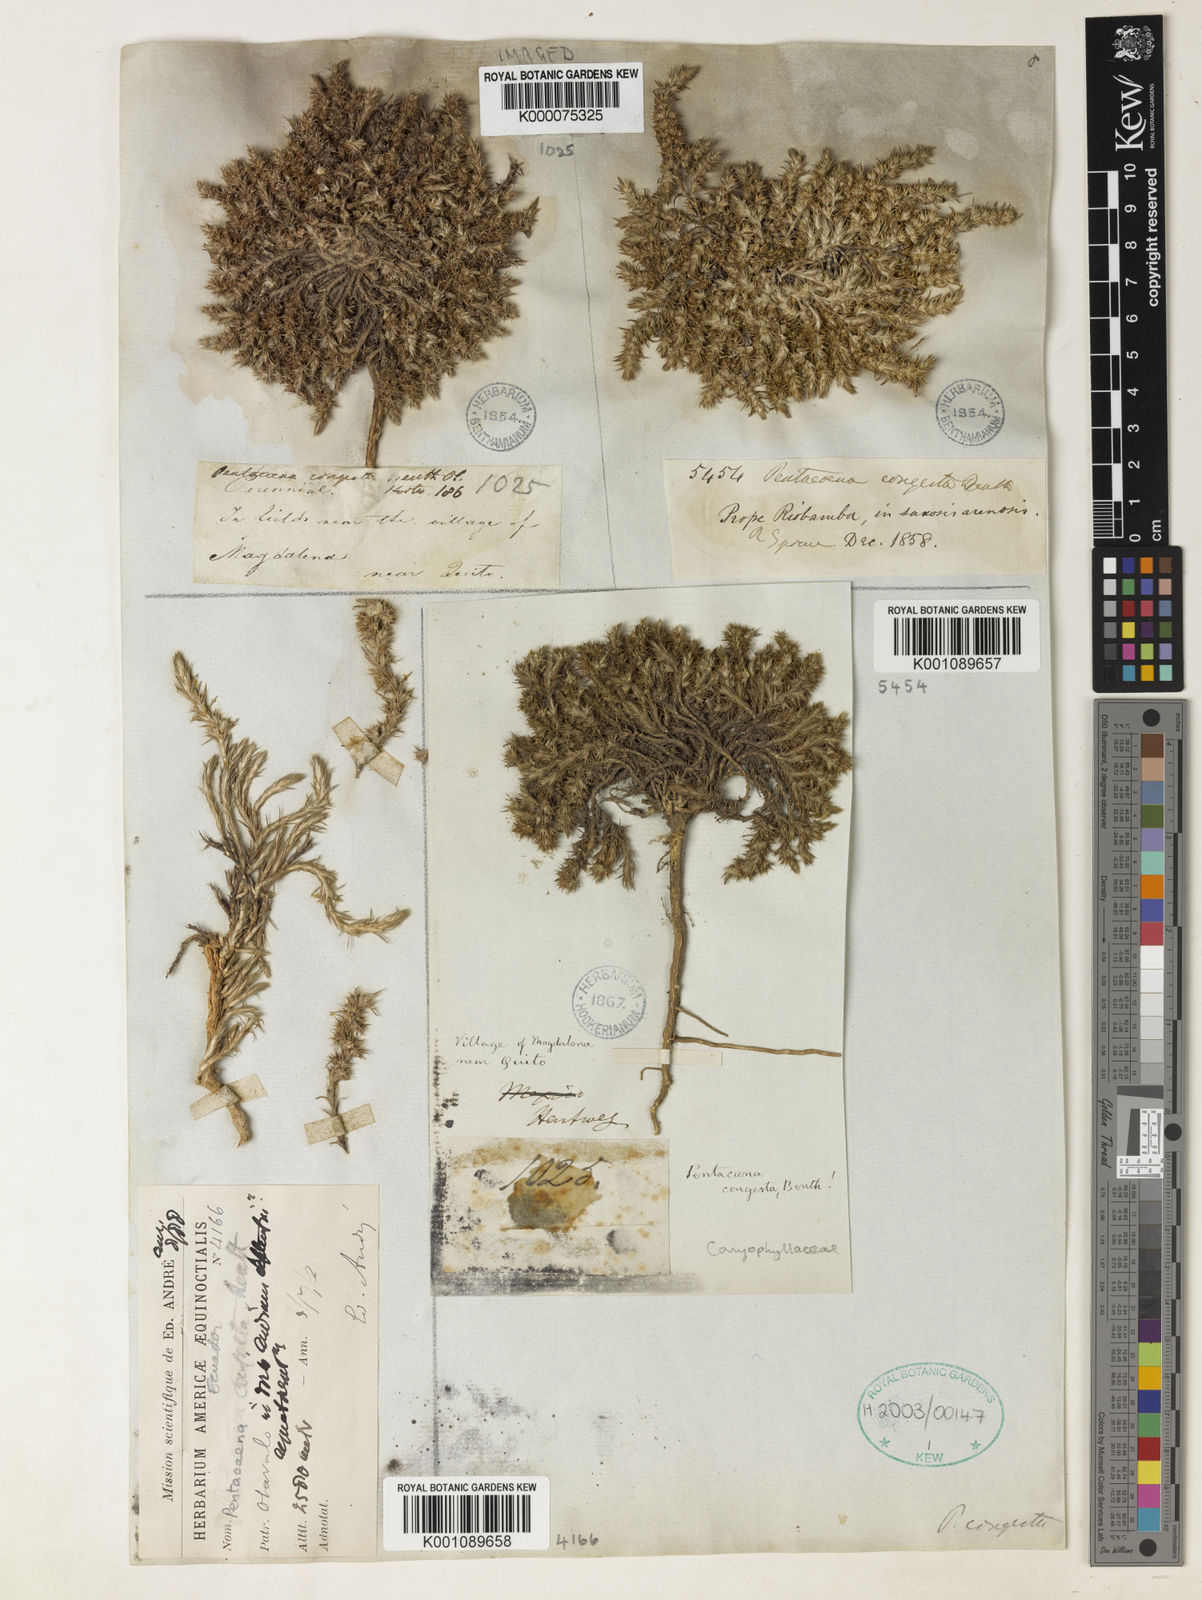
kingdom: Plantae
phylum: Tracheophyta
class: Magnoliopsida
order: Caryophyllales
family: Caryophyllaceae
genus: Cardionema
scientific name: Cardionema congesta
